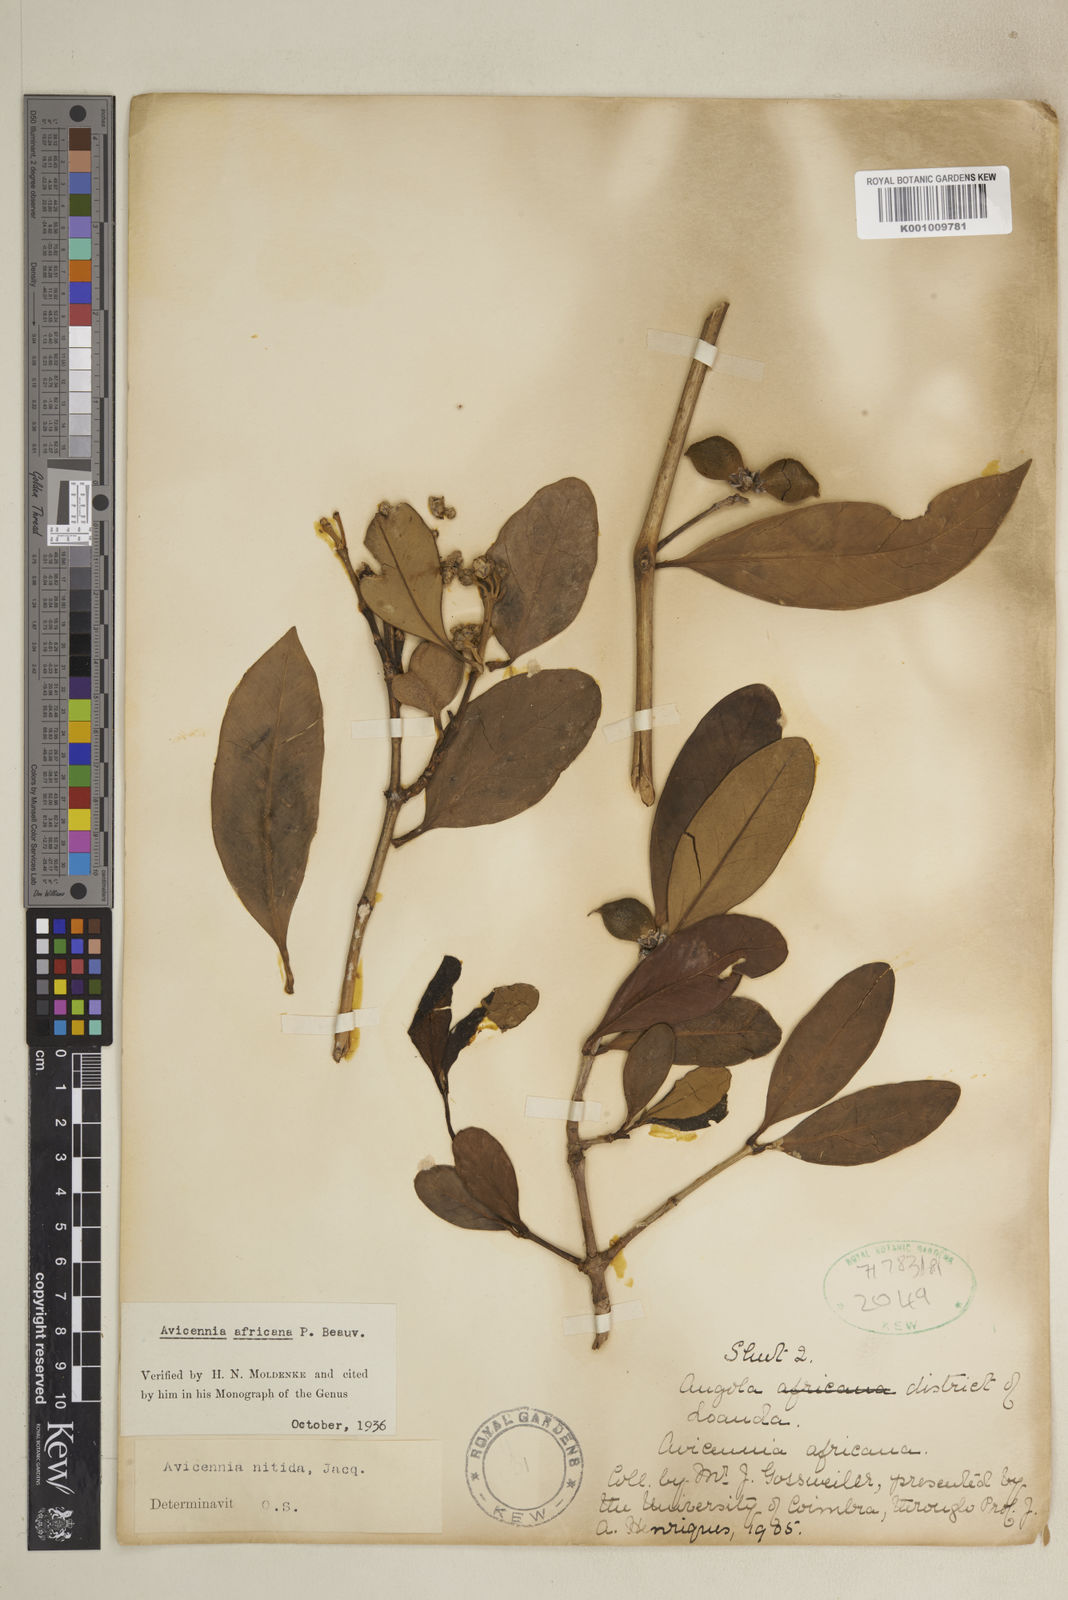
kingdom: Plantae
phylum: Tracheophyta
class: Magnoliopsida
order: Lamiales
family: Acanthaceae
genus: Avicennia
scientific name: Avicennia germinans
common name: Black mangrove
